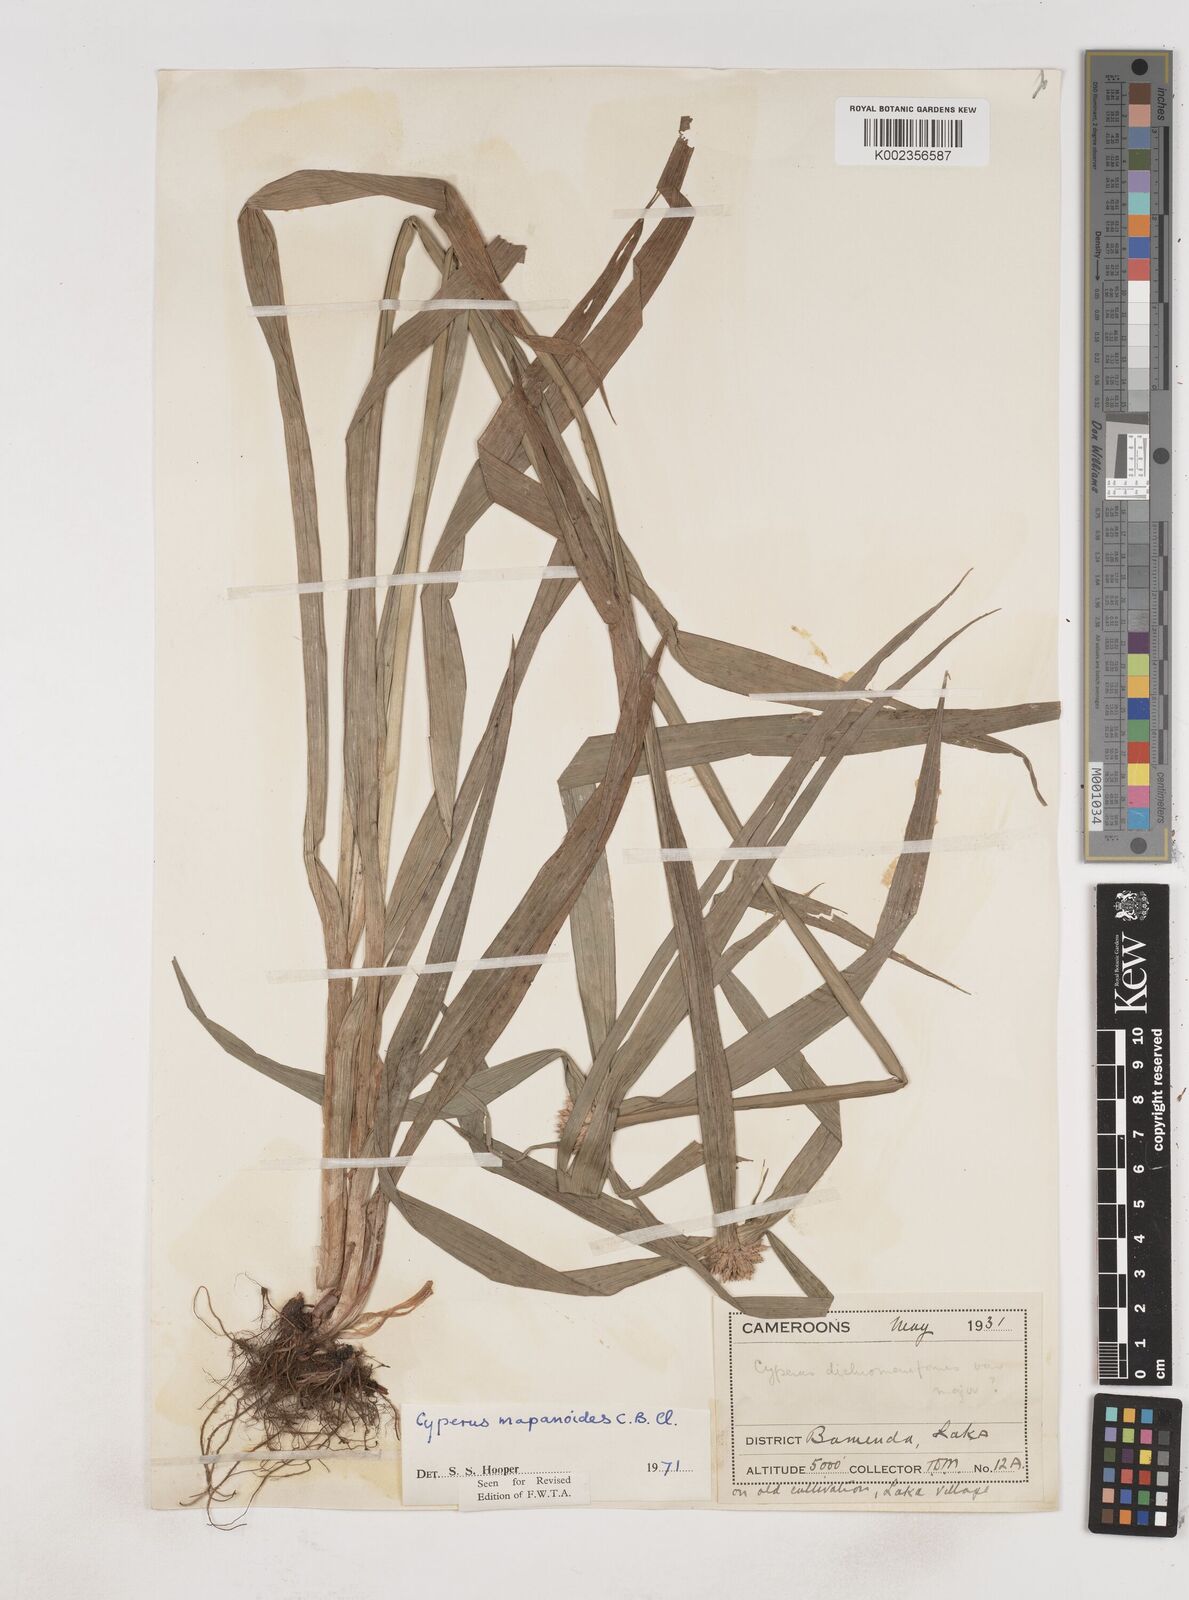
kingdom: Plantae
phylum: Tracheophyta
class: Liliopsida
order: Poales
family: Cyperaceae
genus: Cyperus
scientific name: Cyperus mapanioides
